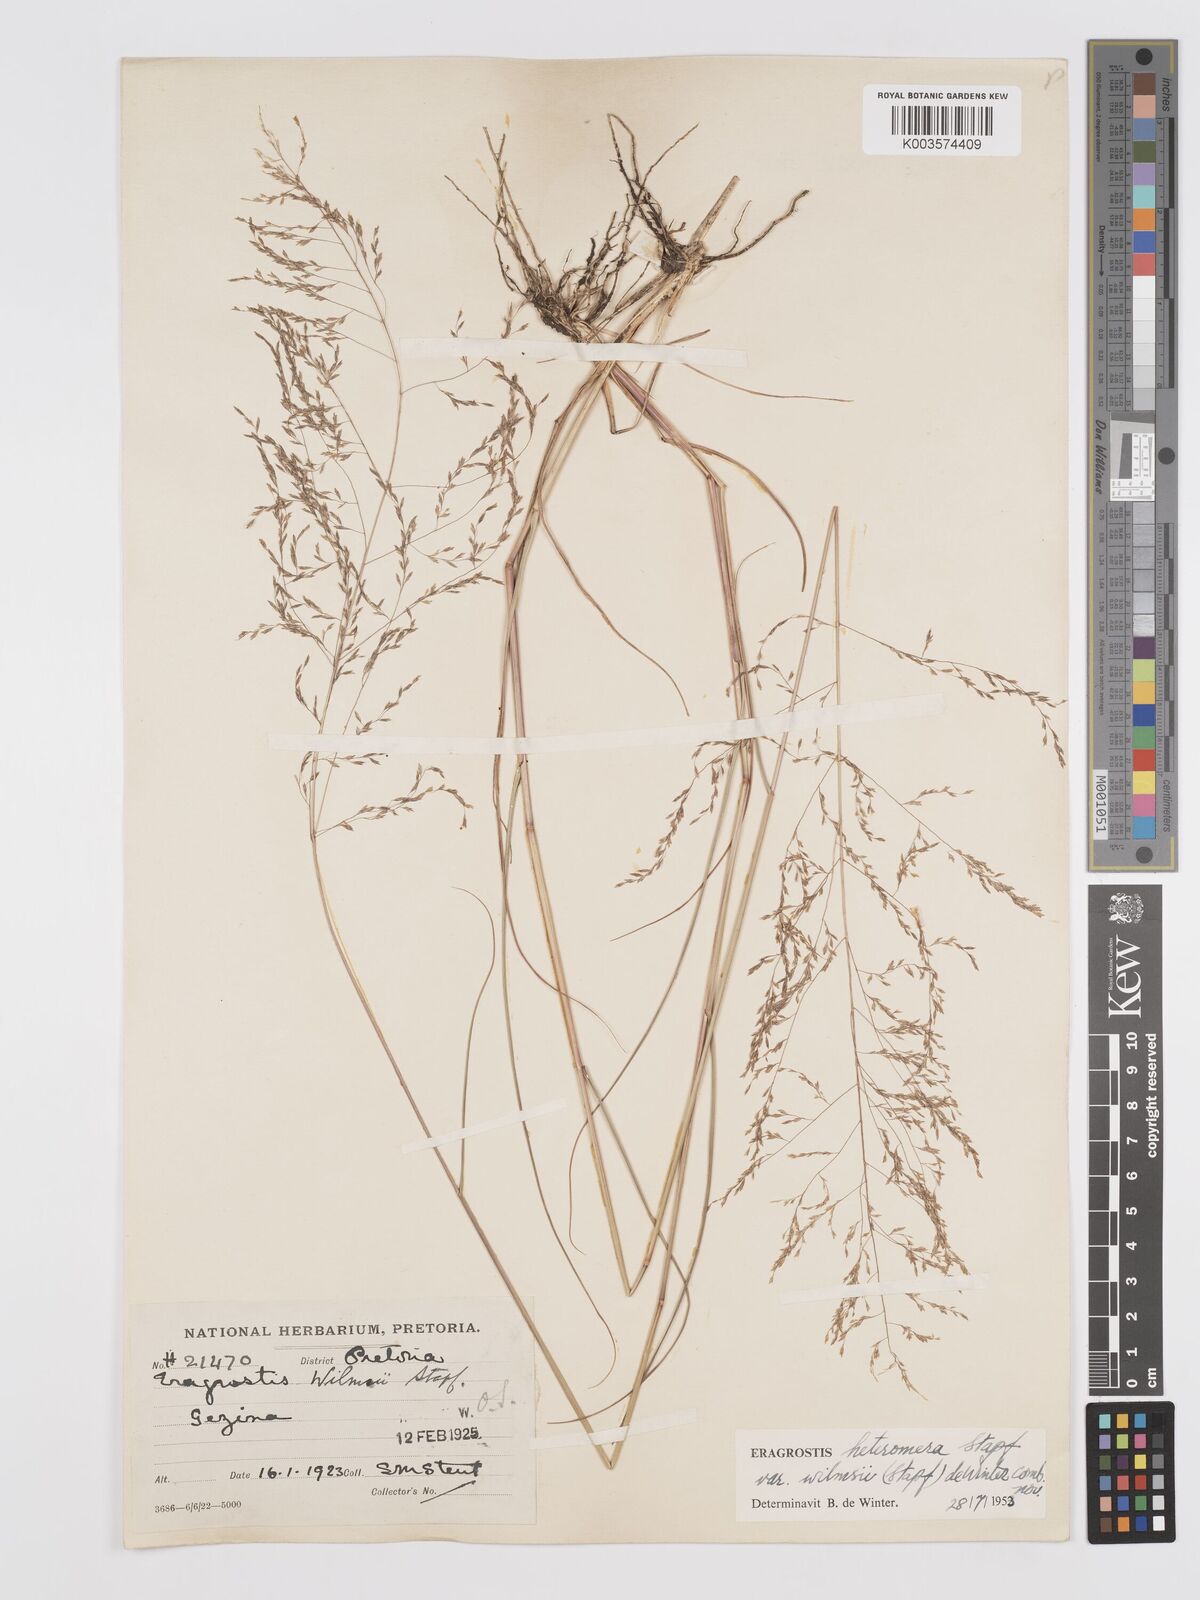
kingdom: Plantae
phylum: Tracheophyta
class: Liliopsida
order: Poales
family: Poaceae
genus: Eragrostis
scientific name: Eragrostis heteromera
